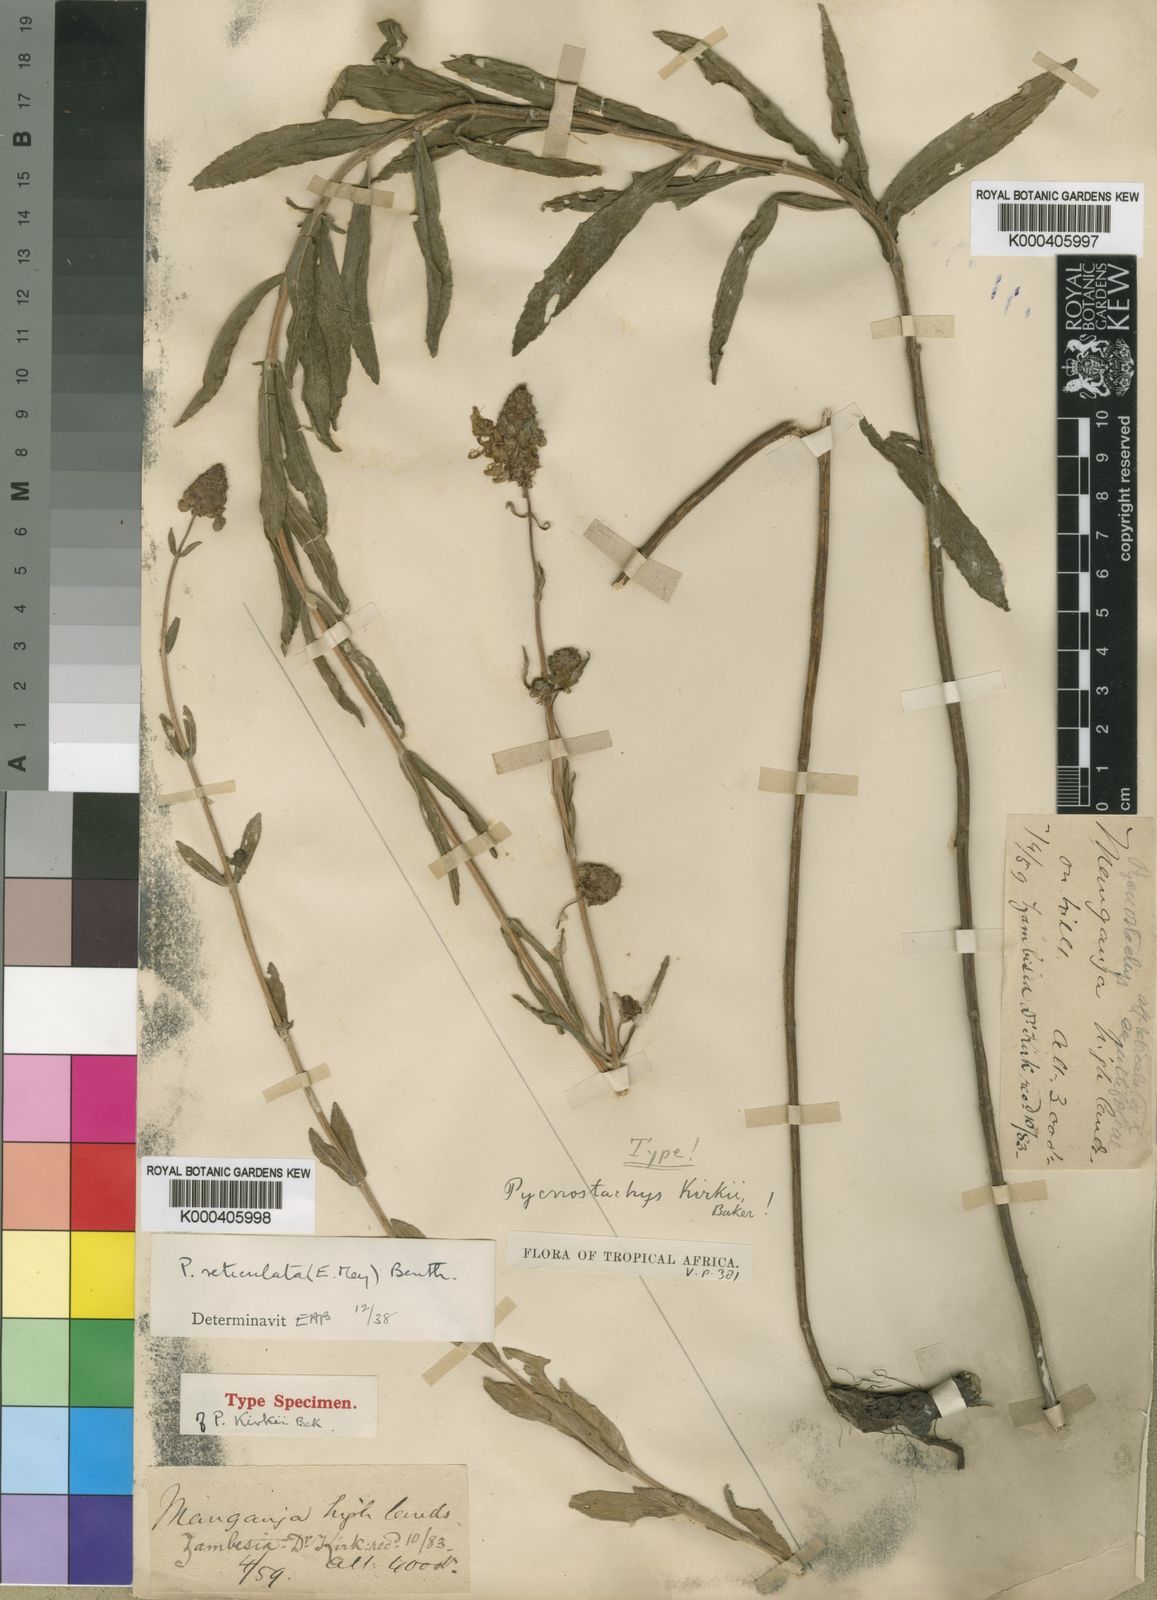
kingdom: Plantae
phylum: Tracheophyta
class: Magnoliopsida
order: Lamiales
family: Lamiaceae
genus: Coleus
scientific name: Coleus kirkii
